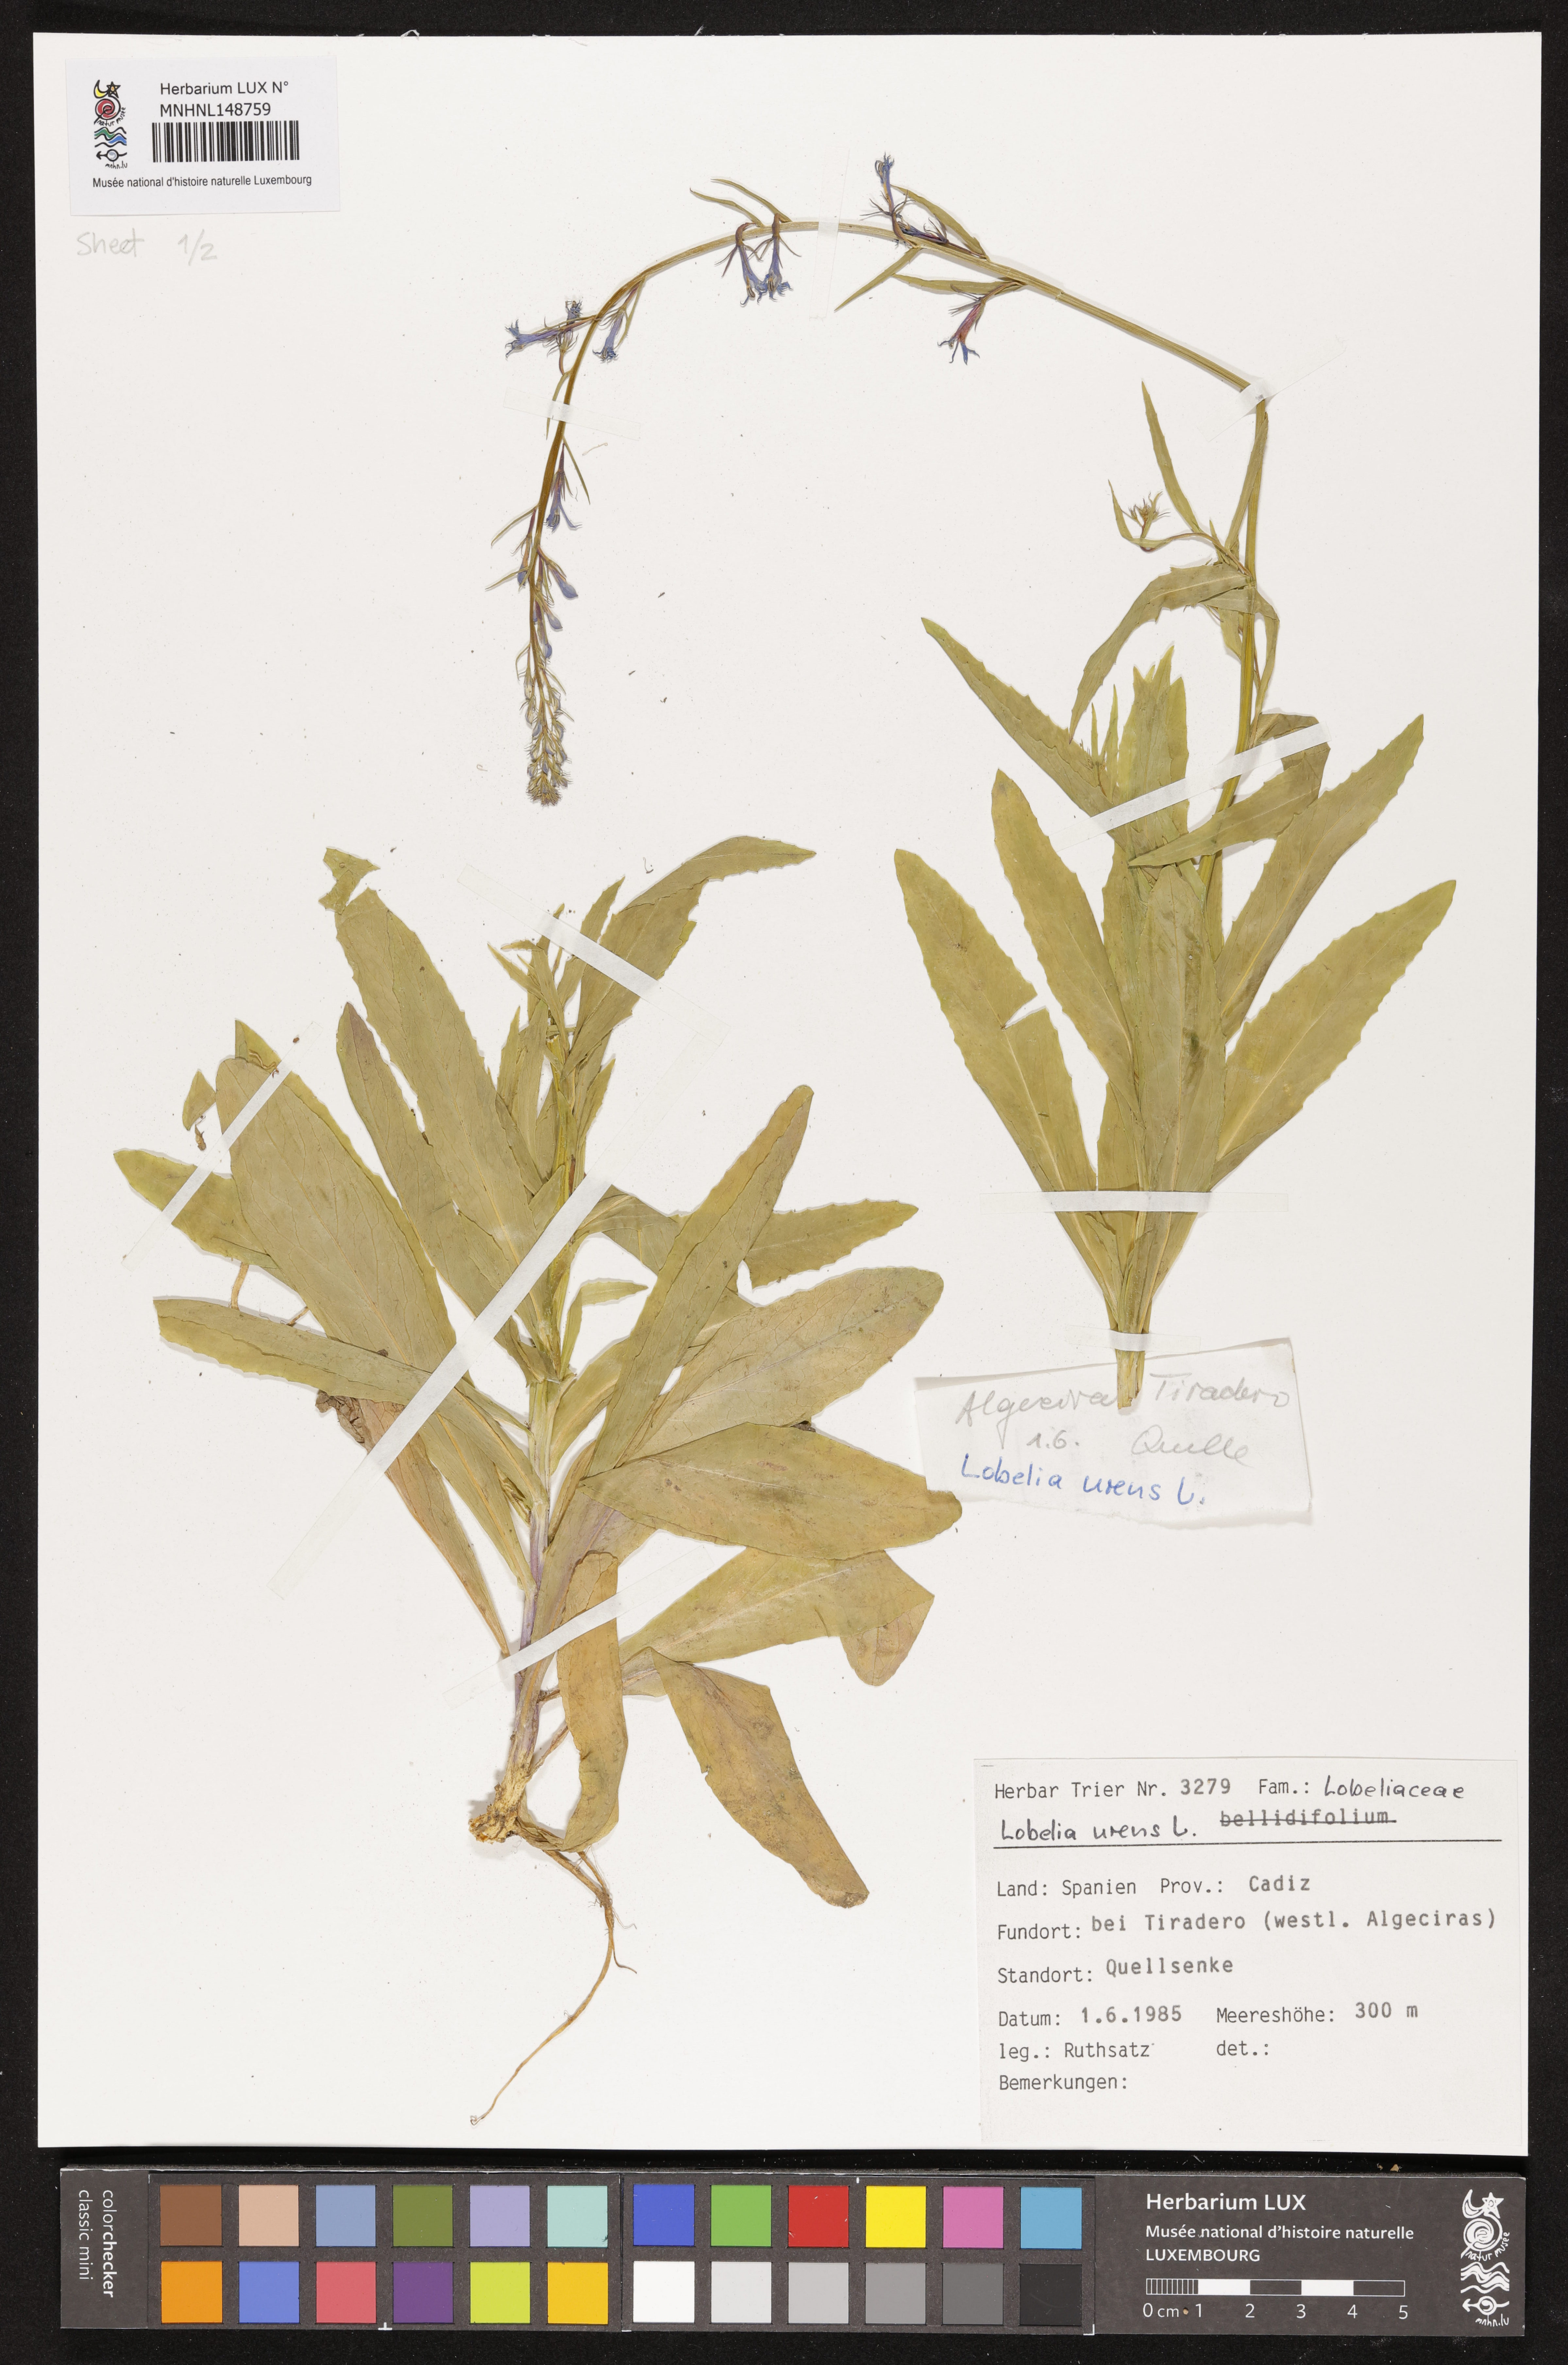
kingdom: Plantae
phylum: Tracheophyta
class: Magnoliopsida
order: Asterales
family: Campanulaceae
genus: Lobelia
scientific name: Lobelia urens
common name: Heath lobelia
